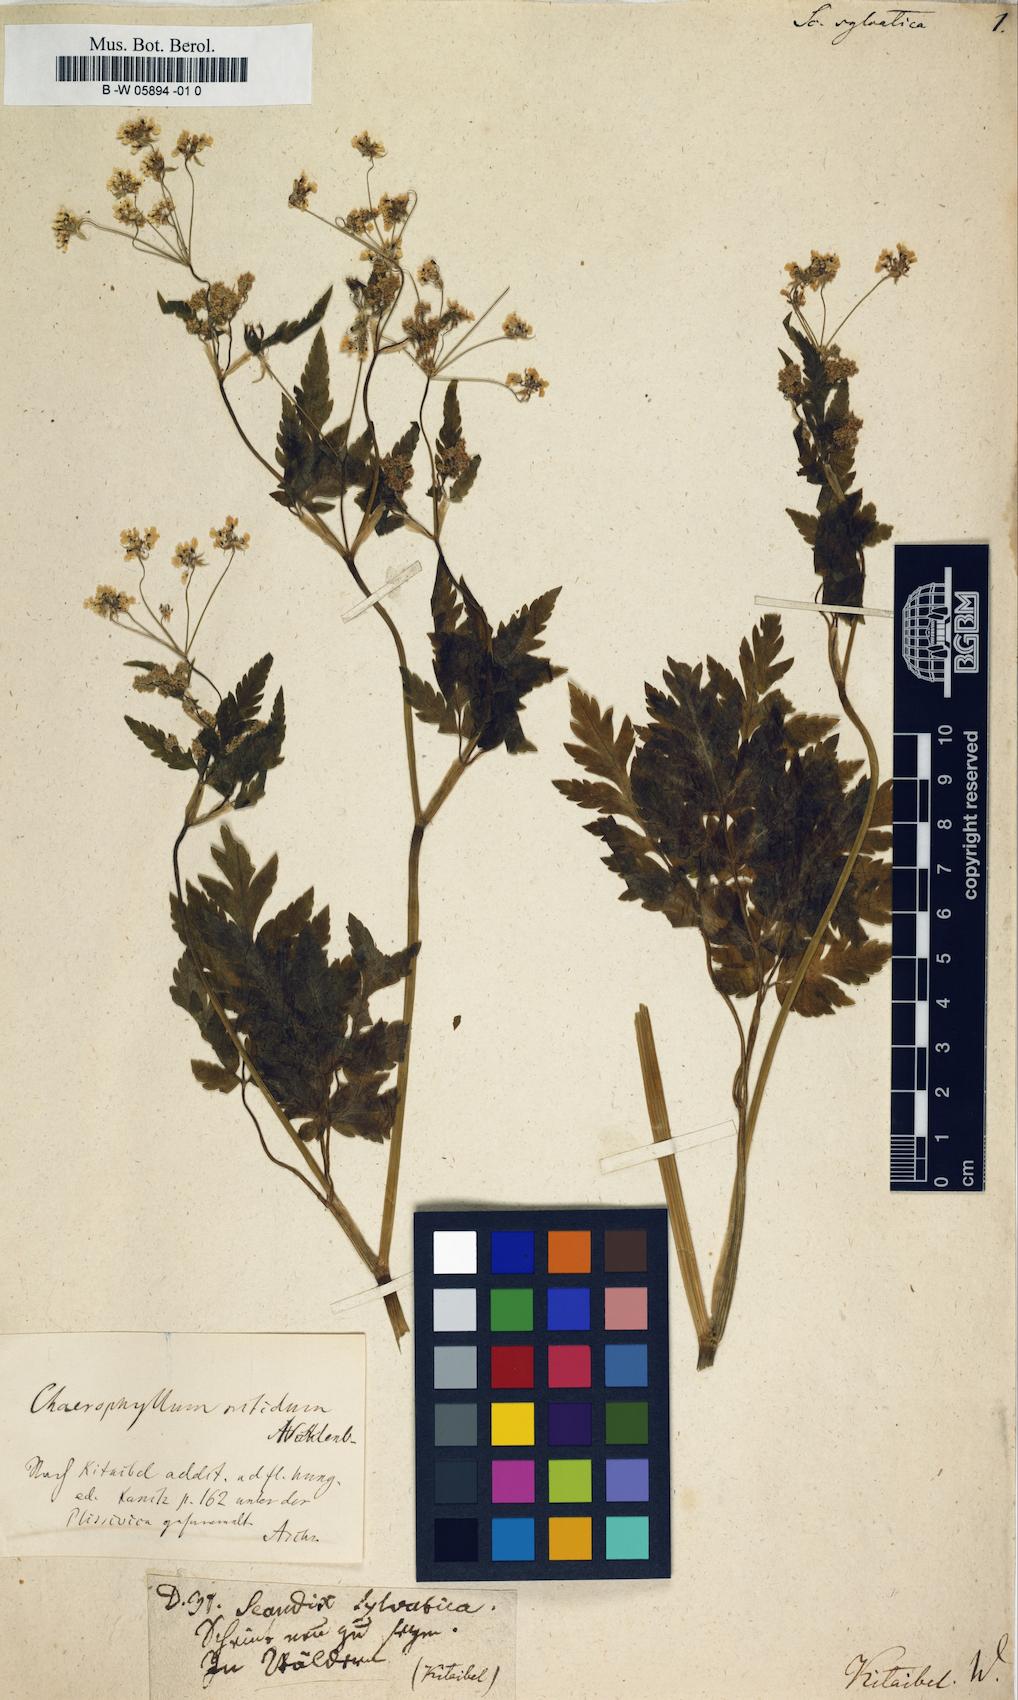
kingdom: Plantae
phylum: Tracheophyta
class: Magnoliopsida
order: Apiales
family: Apiaceae
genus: Scandix
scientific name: Scandix
